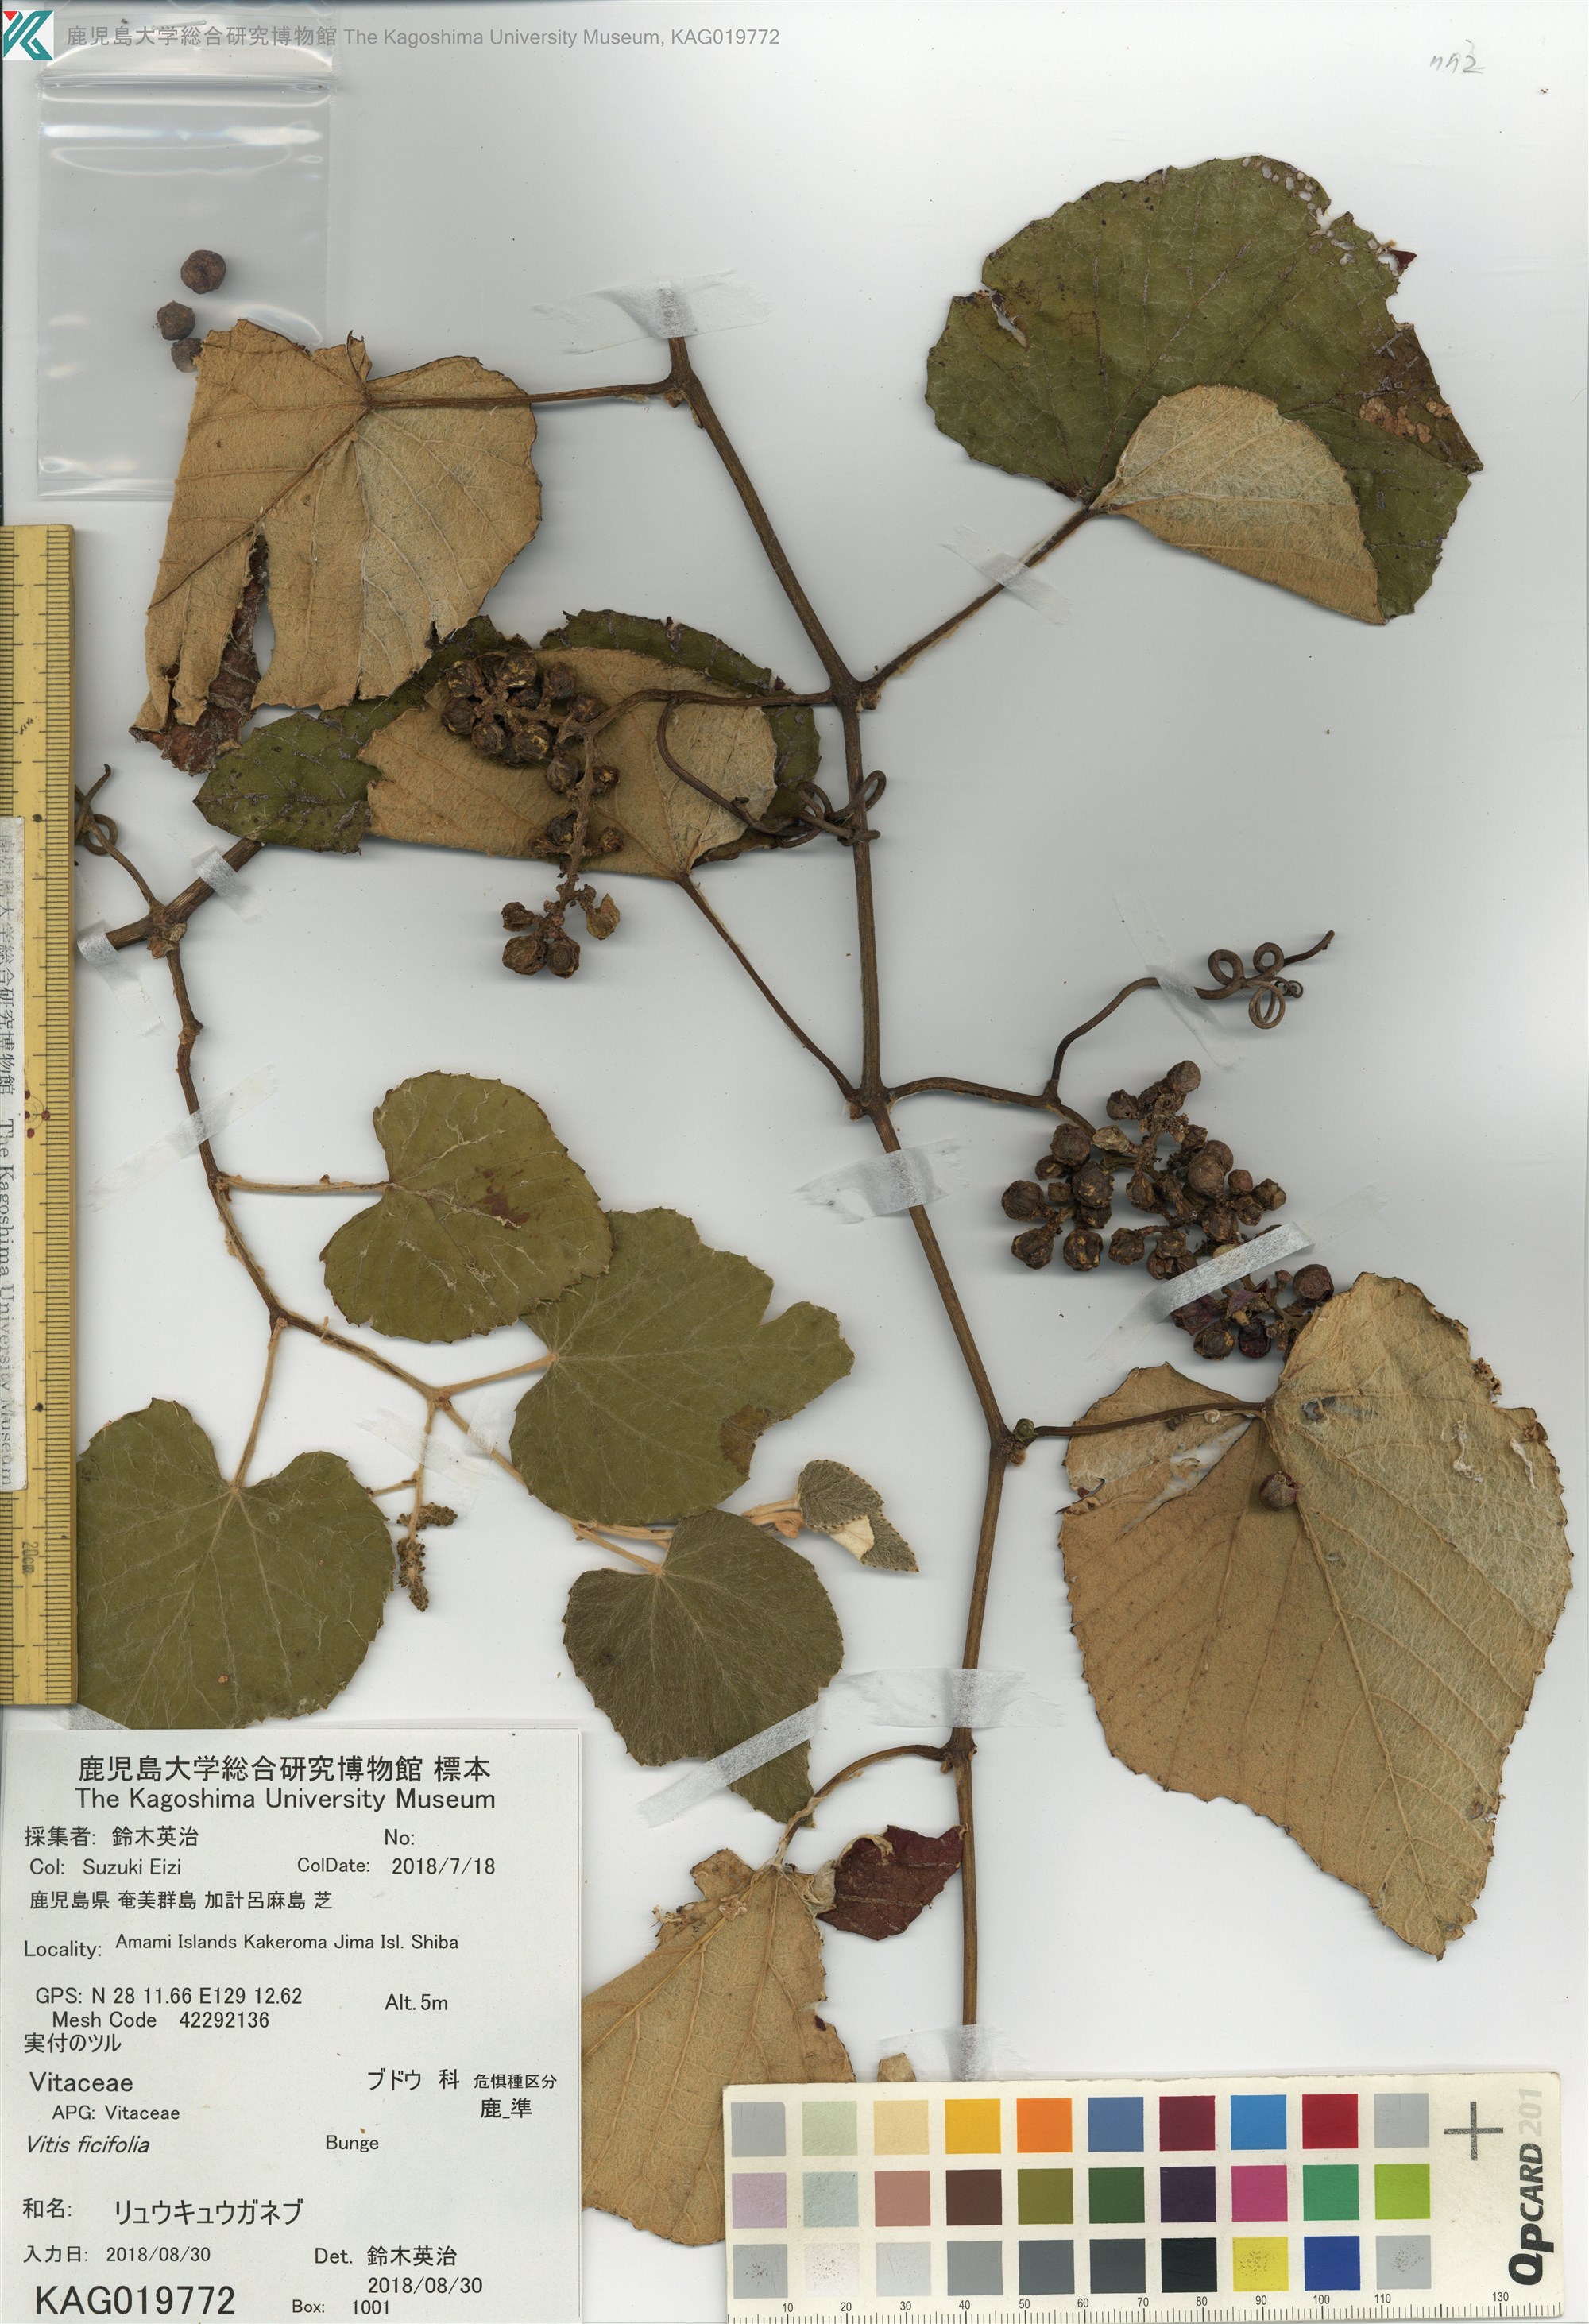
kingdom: Plantae
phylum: Tracheophyta
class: Magnoliopsida
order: Vitales
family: Vitaceae
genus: Vitis
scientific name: Vitis ficifolia
